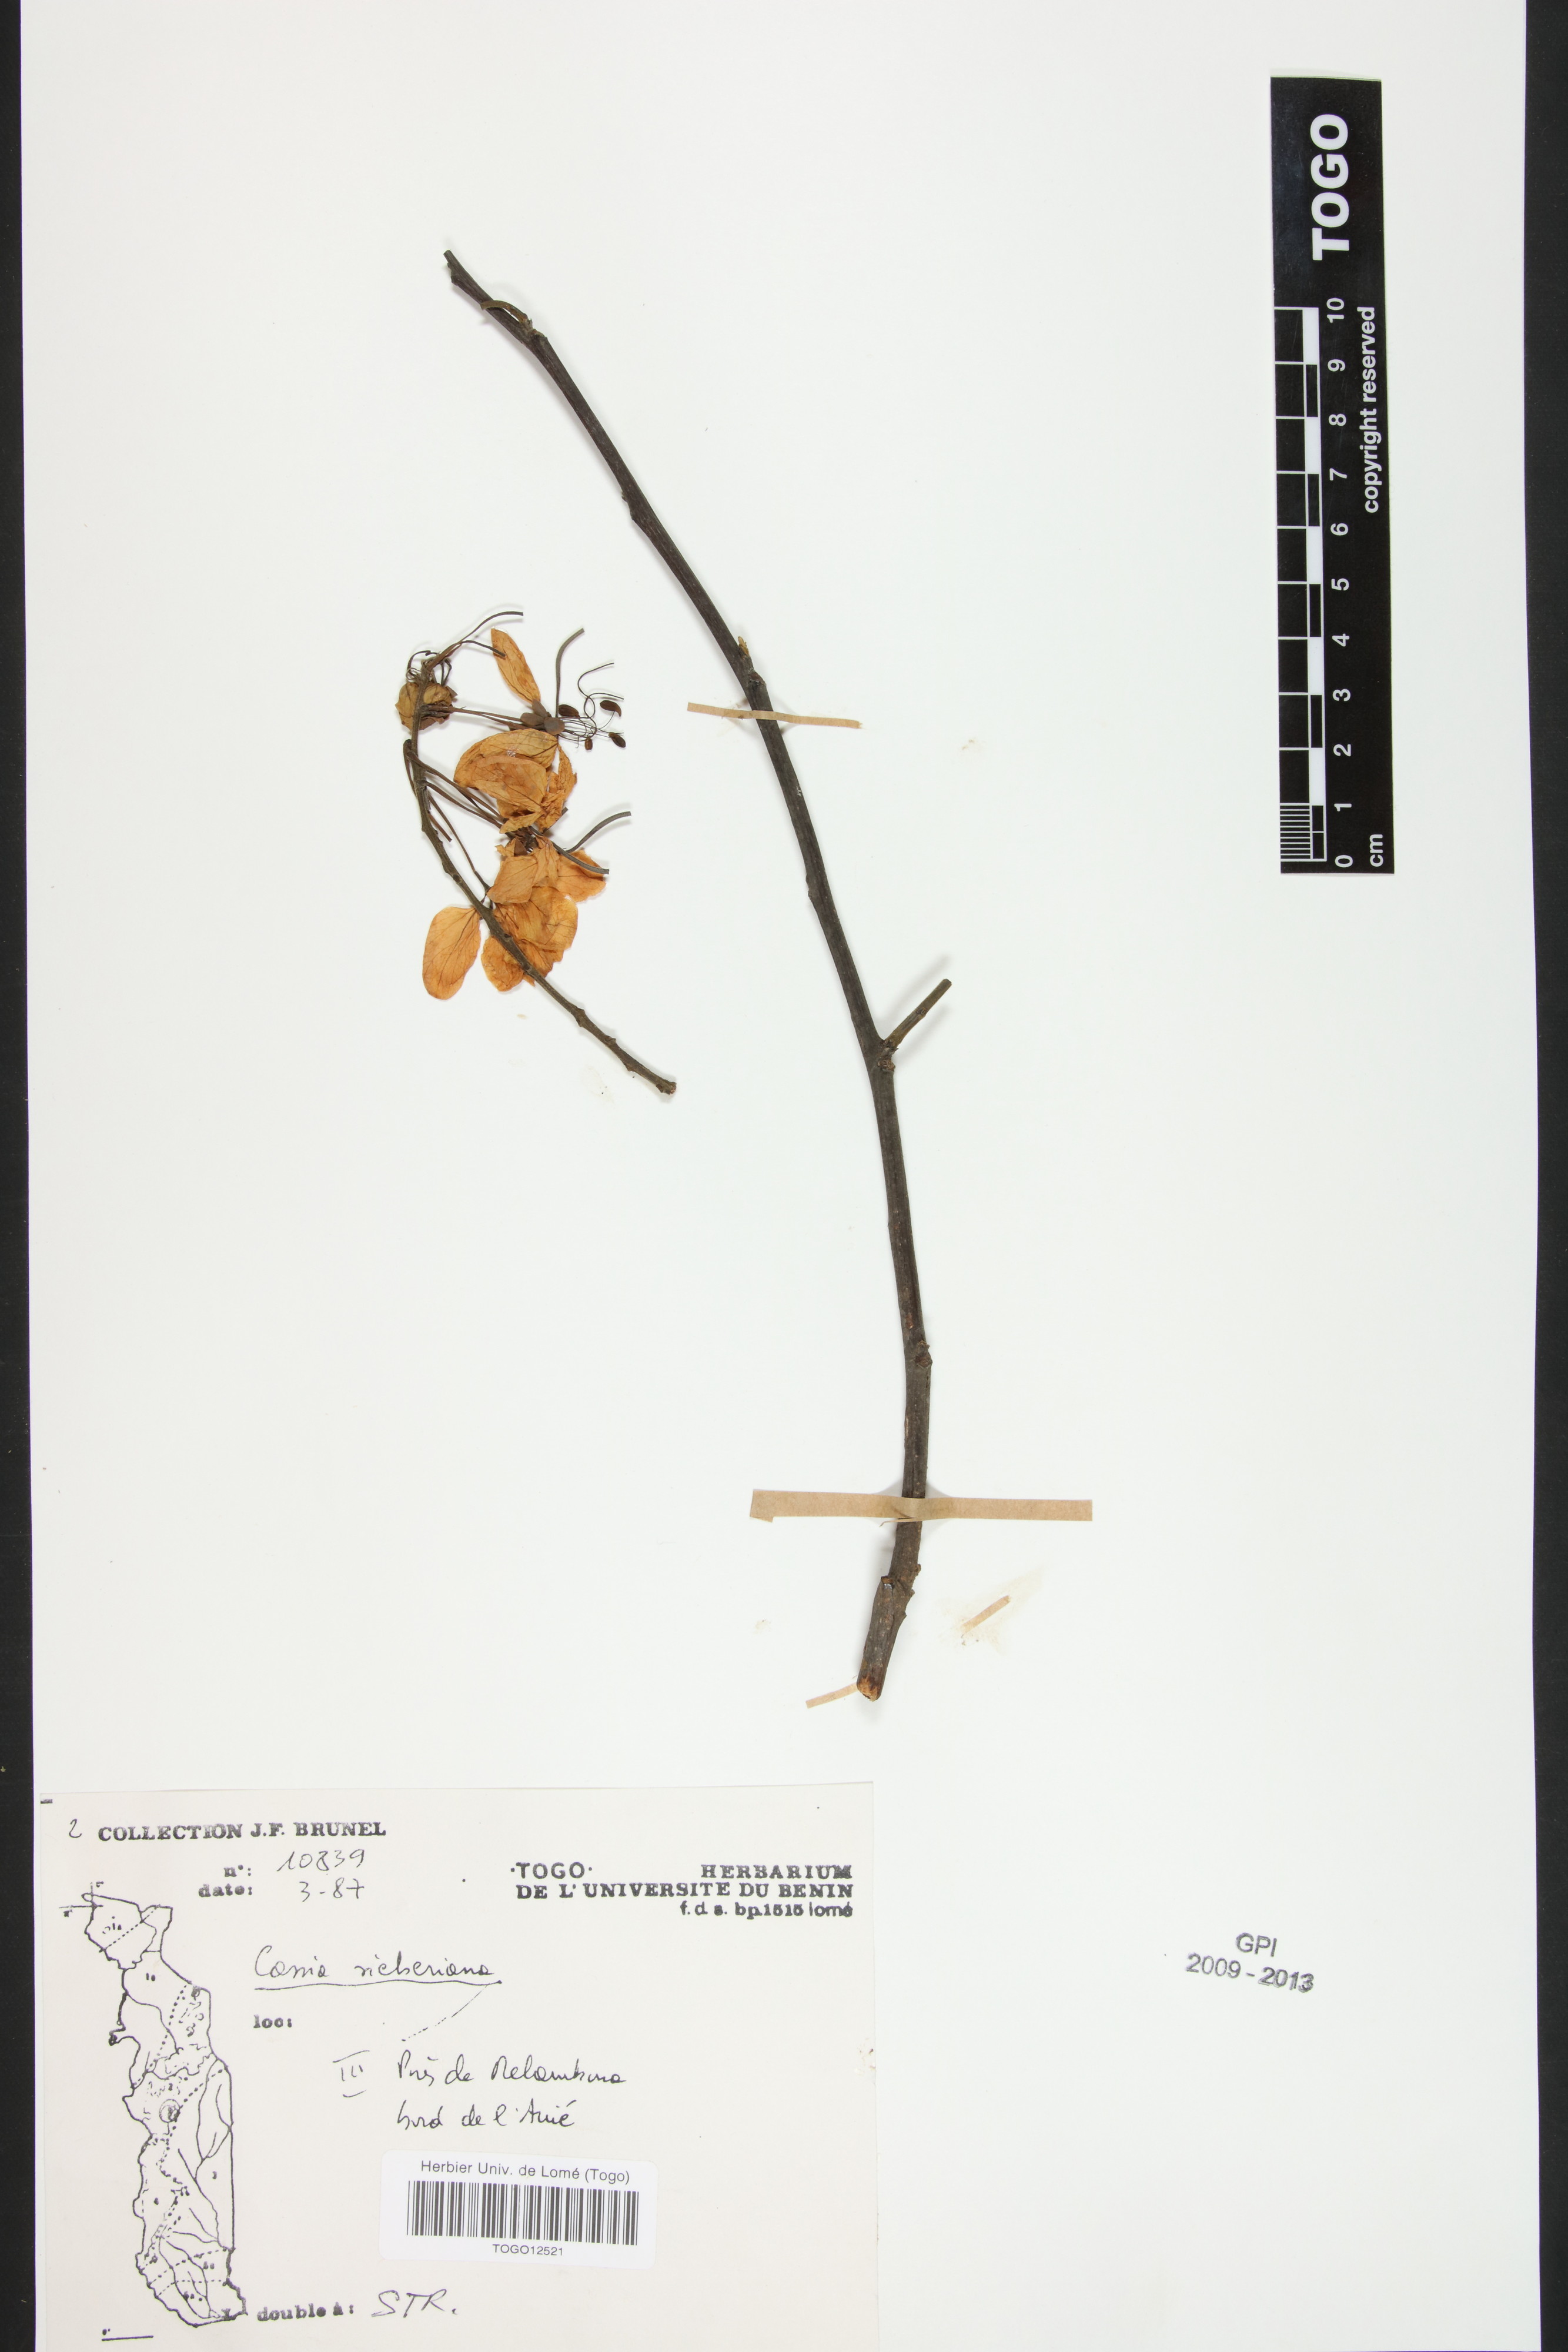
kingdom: Plantae
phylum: Tracheophyta
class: Magnoliopsida
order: Fabales
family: Fabaceae
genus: Cassia
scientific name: Cassia sieberiana
